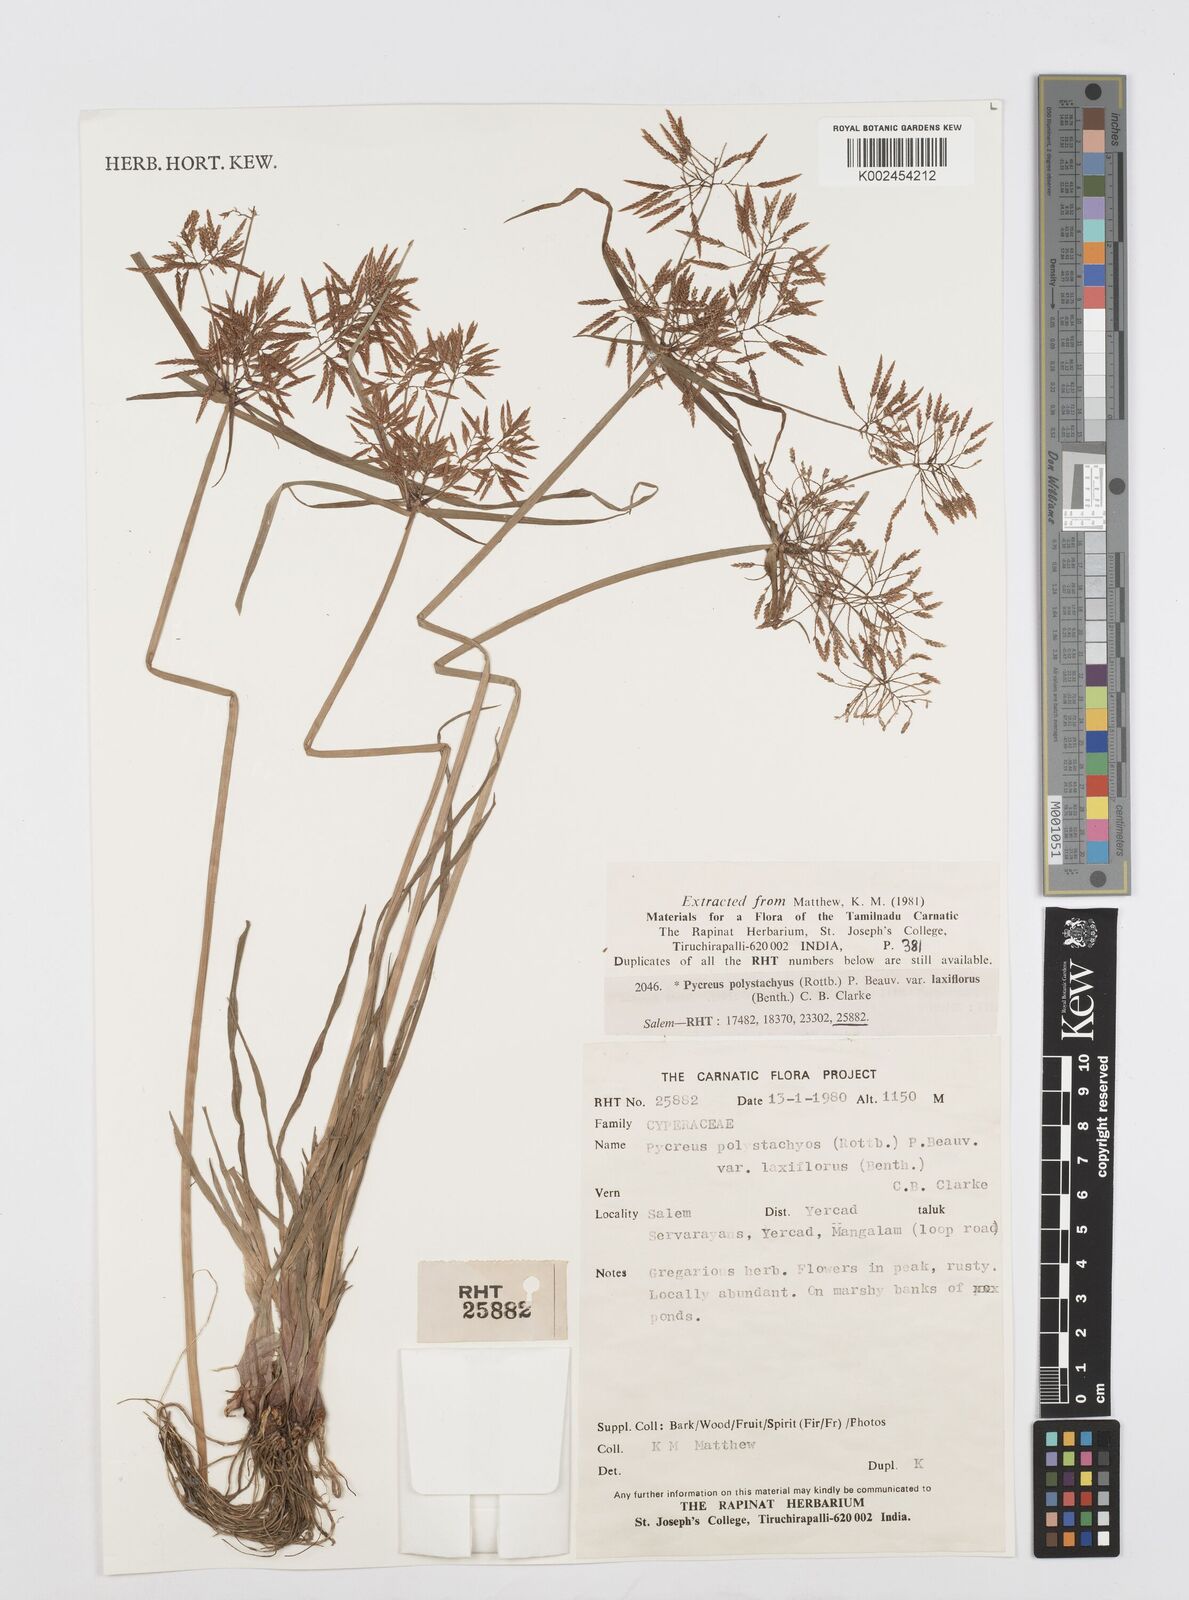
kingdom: Plantae
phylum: Tracheophyta
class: Liliopsida
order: Poales
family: Cyperaceae
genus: Cyperus
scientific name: Cyperus polystachyos
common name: Bunchy flat sedge
